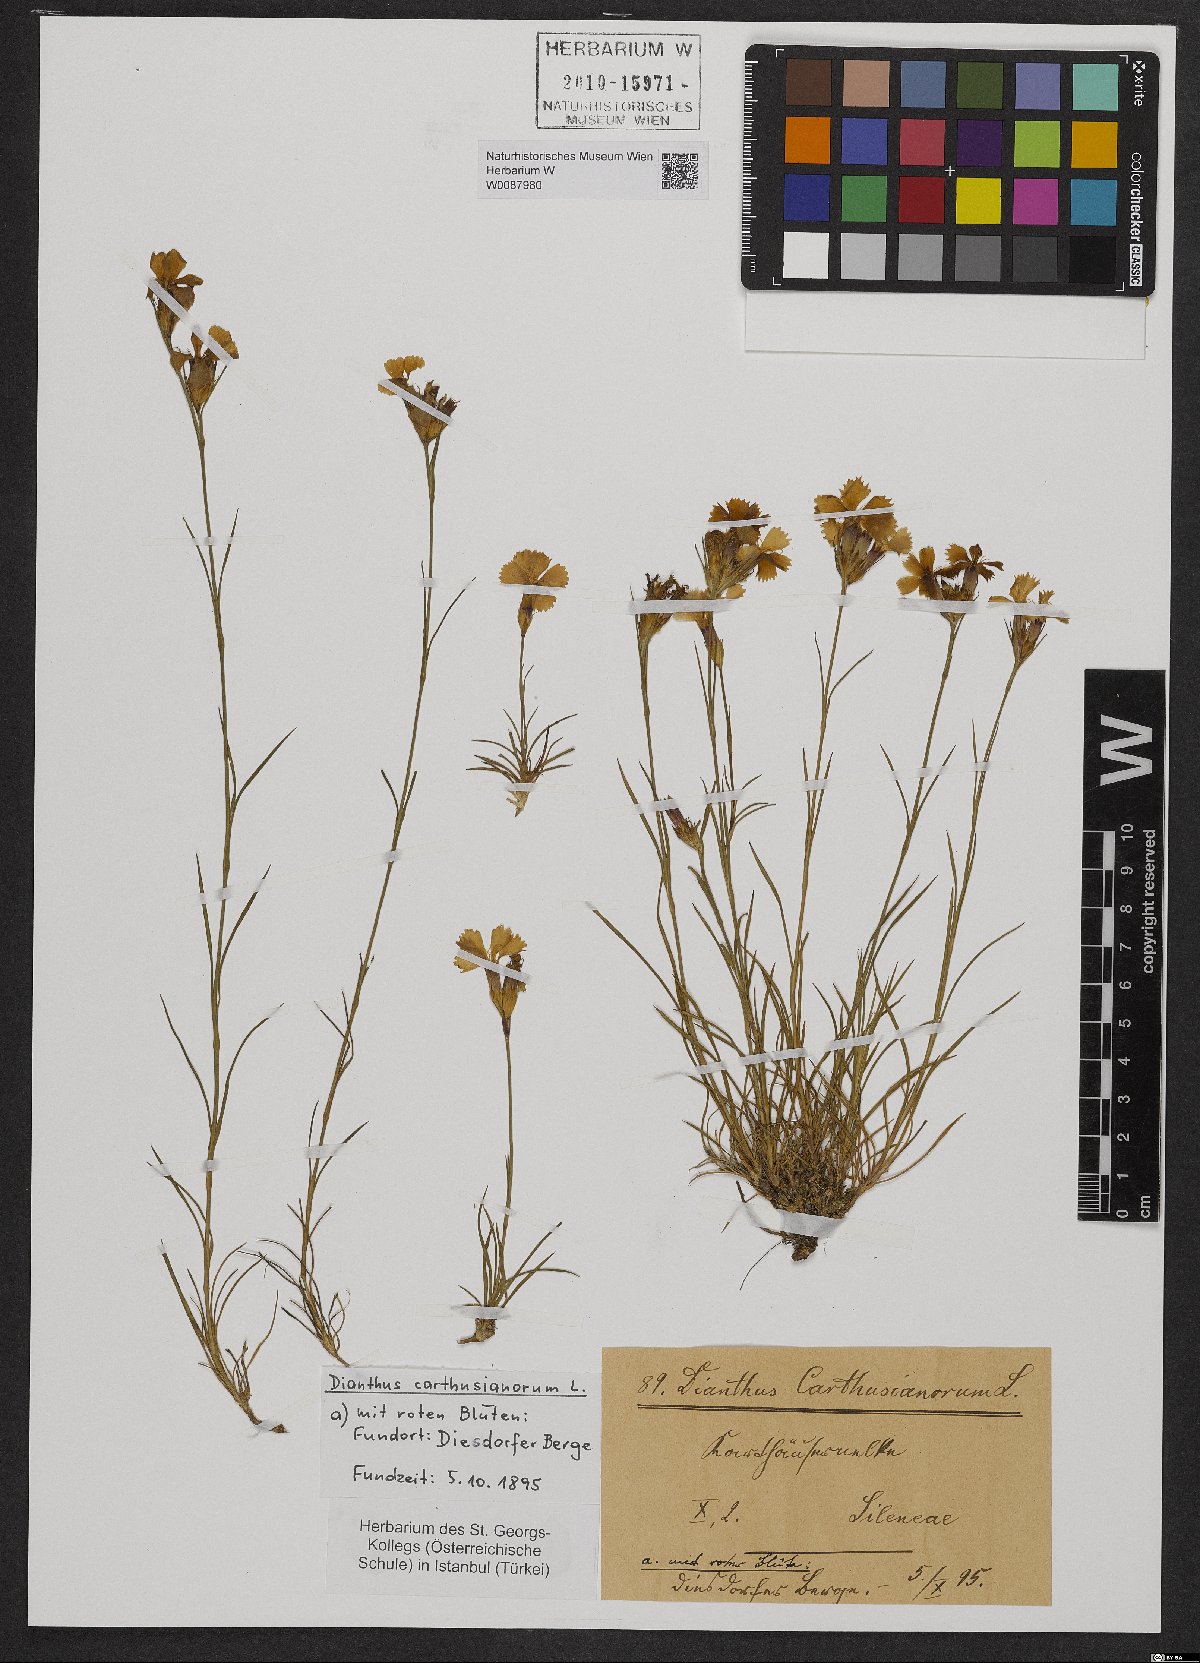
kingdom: Plantae
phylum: Tracheophyta
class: Magnoliopsida
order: Caryophyllales
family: Caryophyllaceae
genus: Dianthus
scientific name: Dianthus carthusianorum
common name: Carthusian pink
